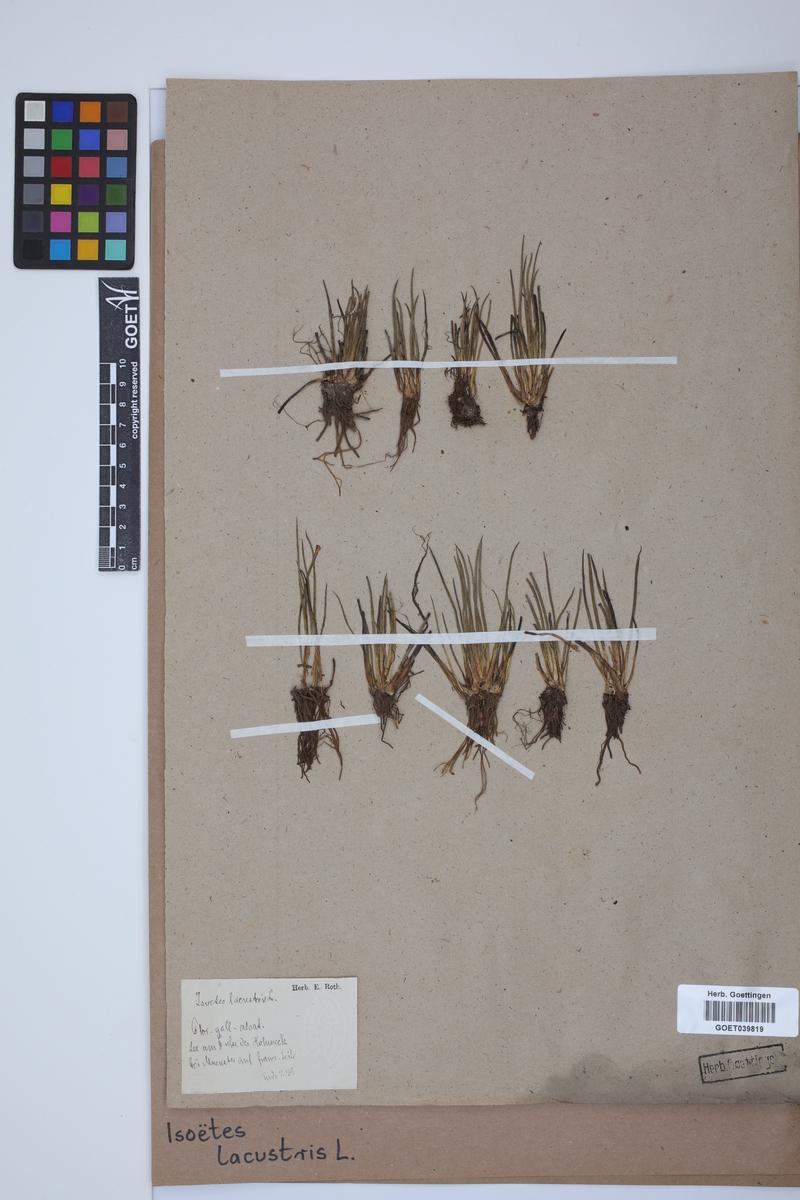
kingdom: Plantae
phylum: Tracheophyta
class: Lycopodiopsida
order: Isoetales
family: Isoetaceae
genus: Isoetes
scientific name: Isoetes lacustris
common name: Common quillwort
